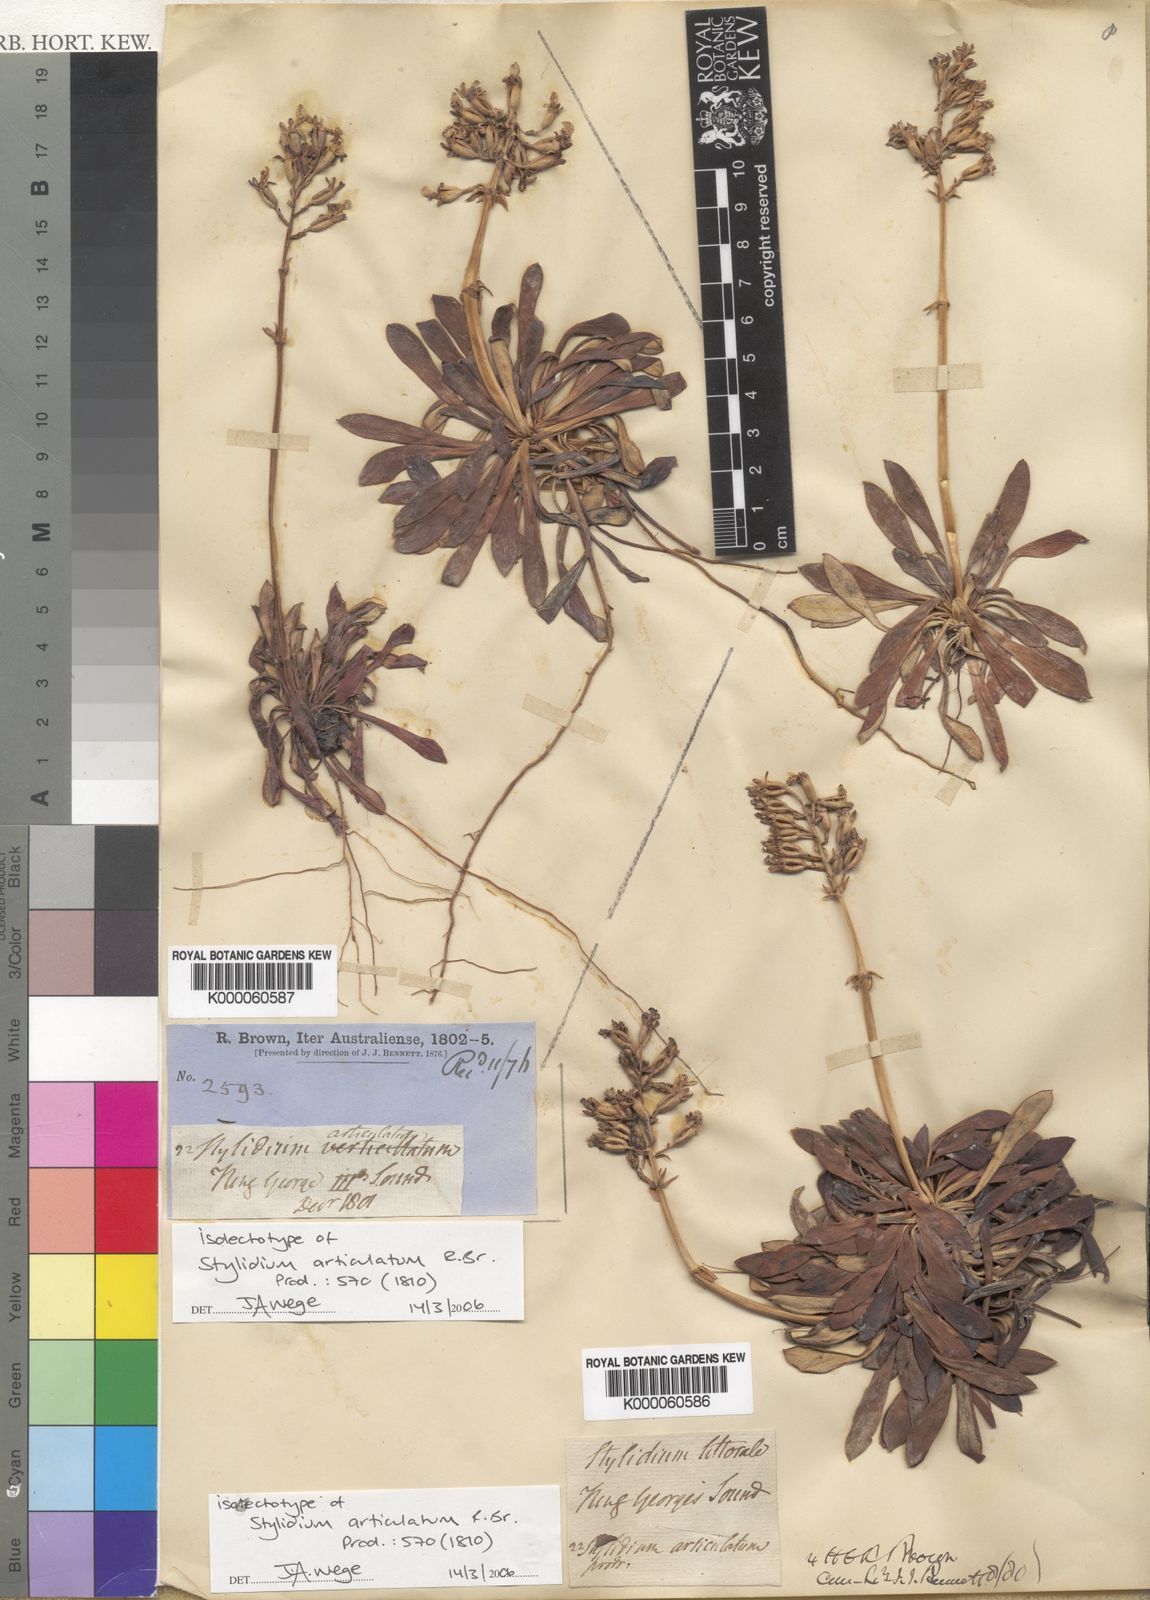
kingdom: Plantae
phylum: Tracheophyta
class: Magnoliopsida
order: Asterales
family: Stylidiaceae
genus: Stylidium
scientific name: Stylidium articulatum
